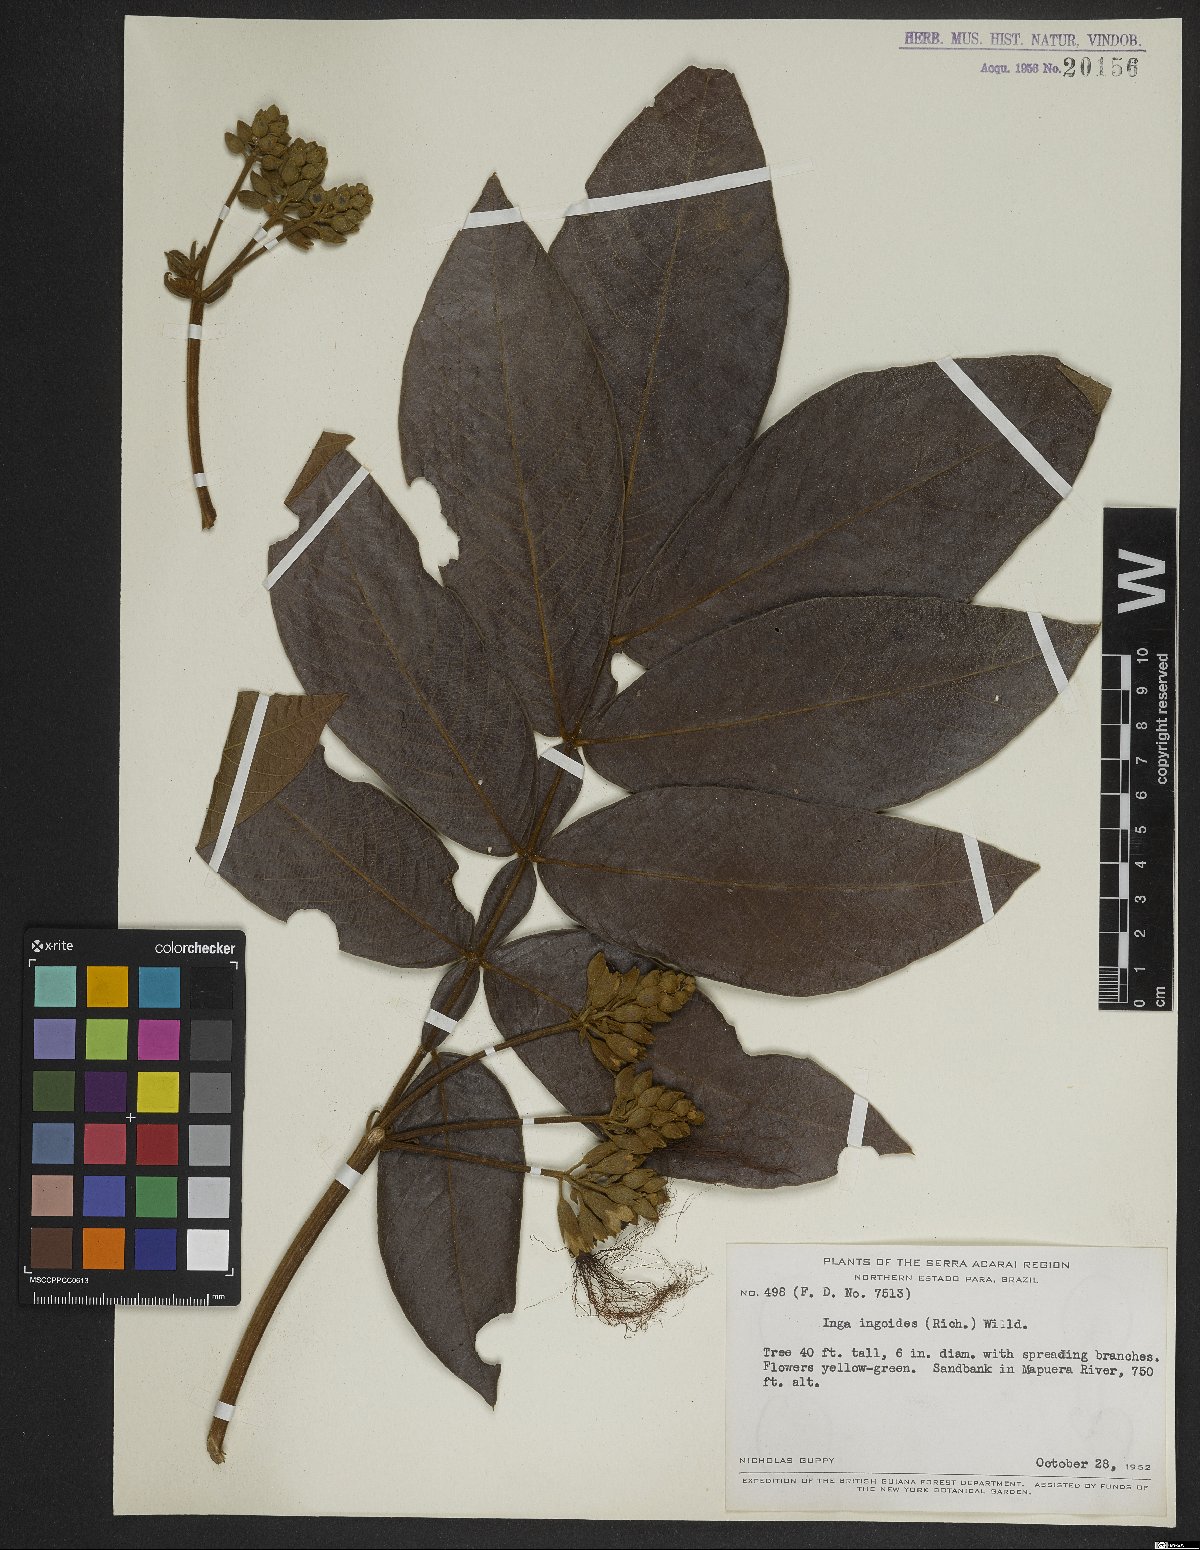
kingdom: Plantae
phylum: Tracheophyta
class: Magnoliopsida
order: Fabales
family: Fabaceae
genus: Inga
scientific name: Inga ingoides
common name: Spanish ash
